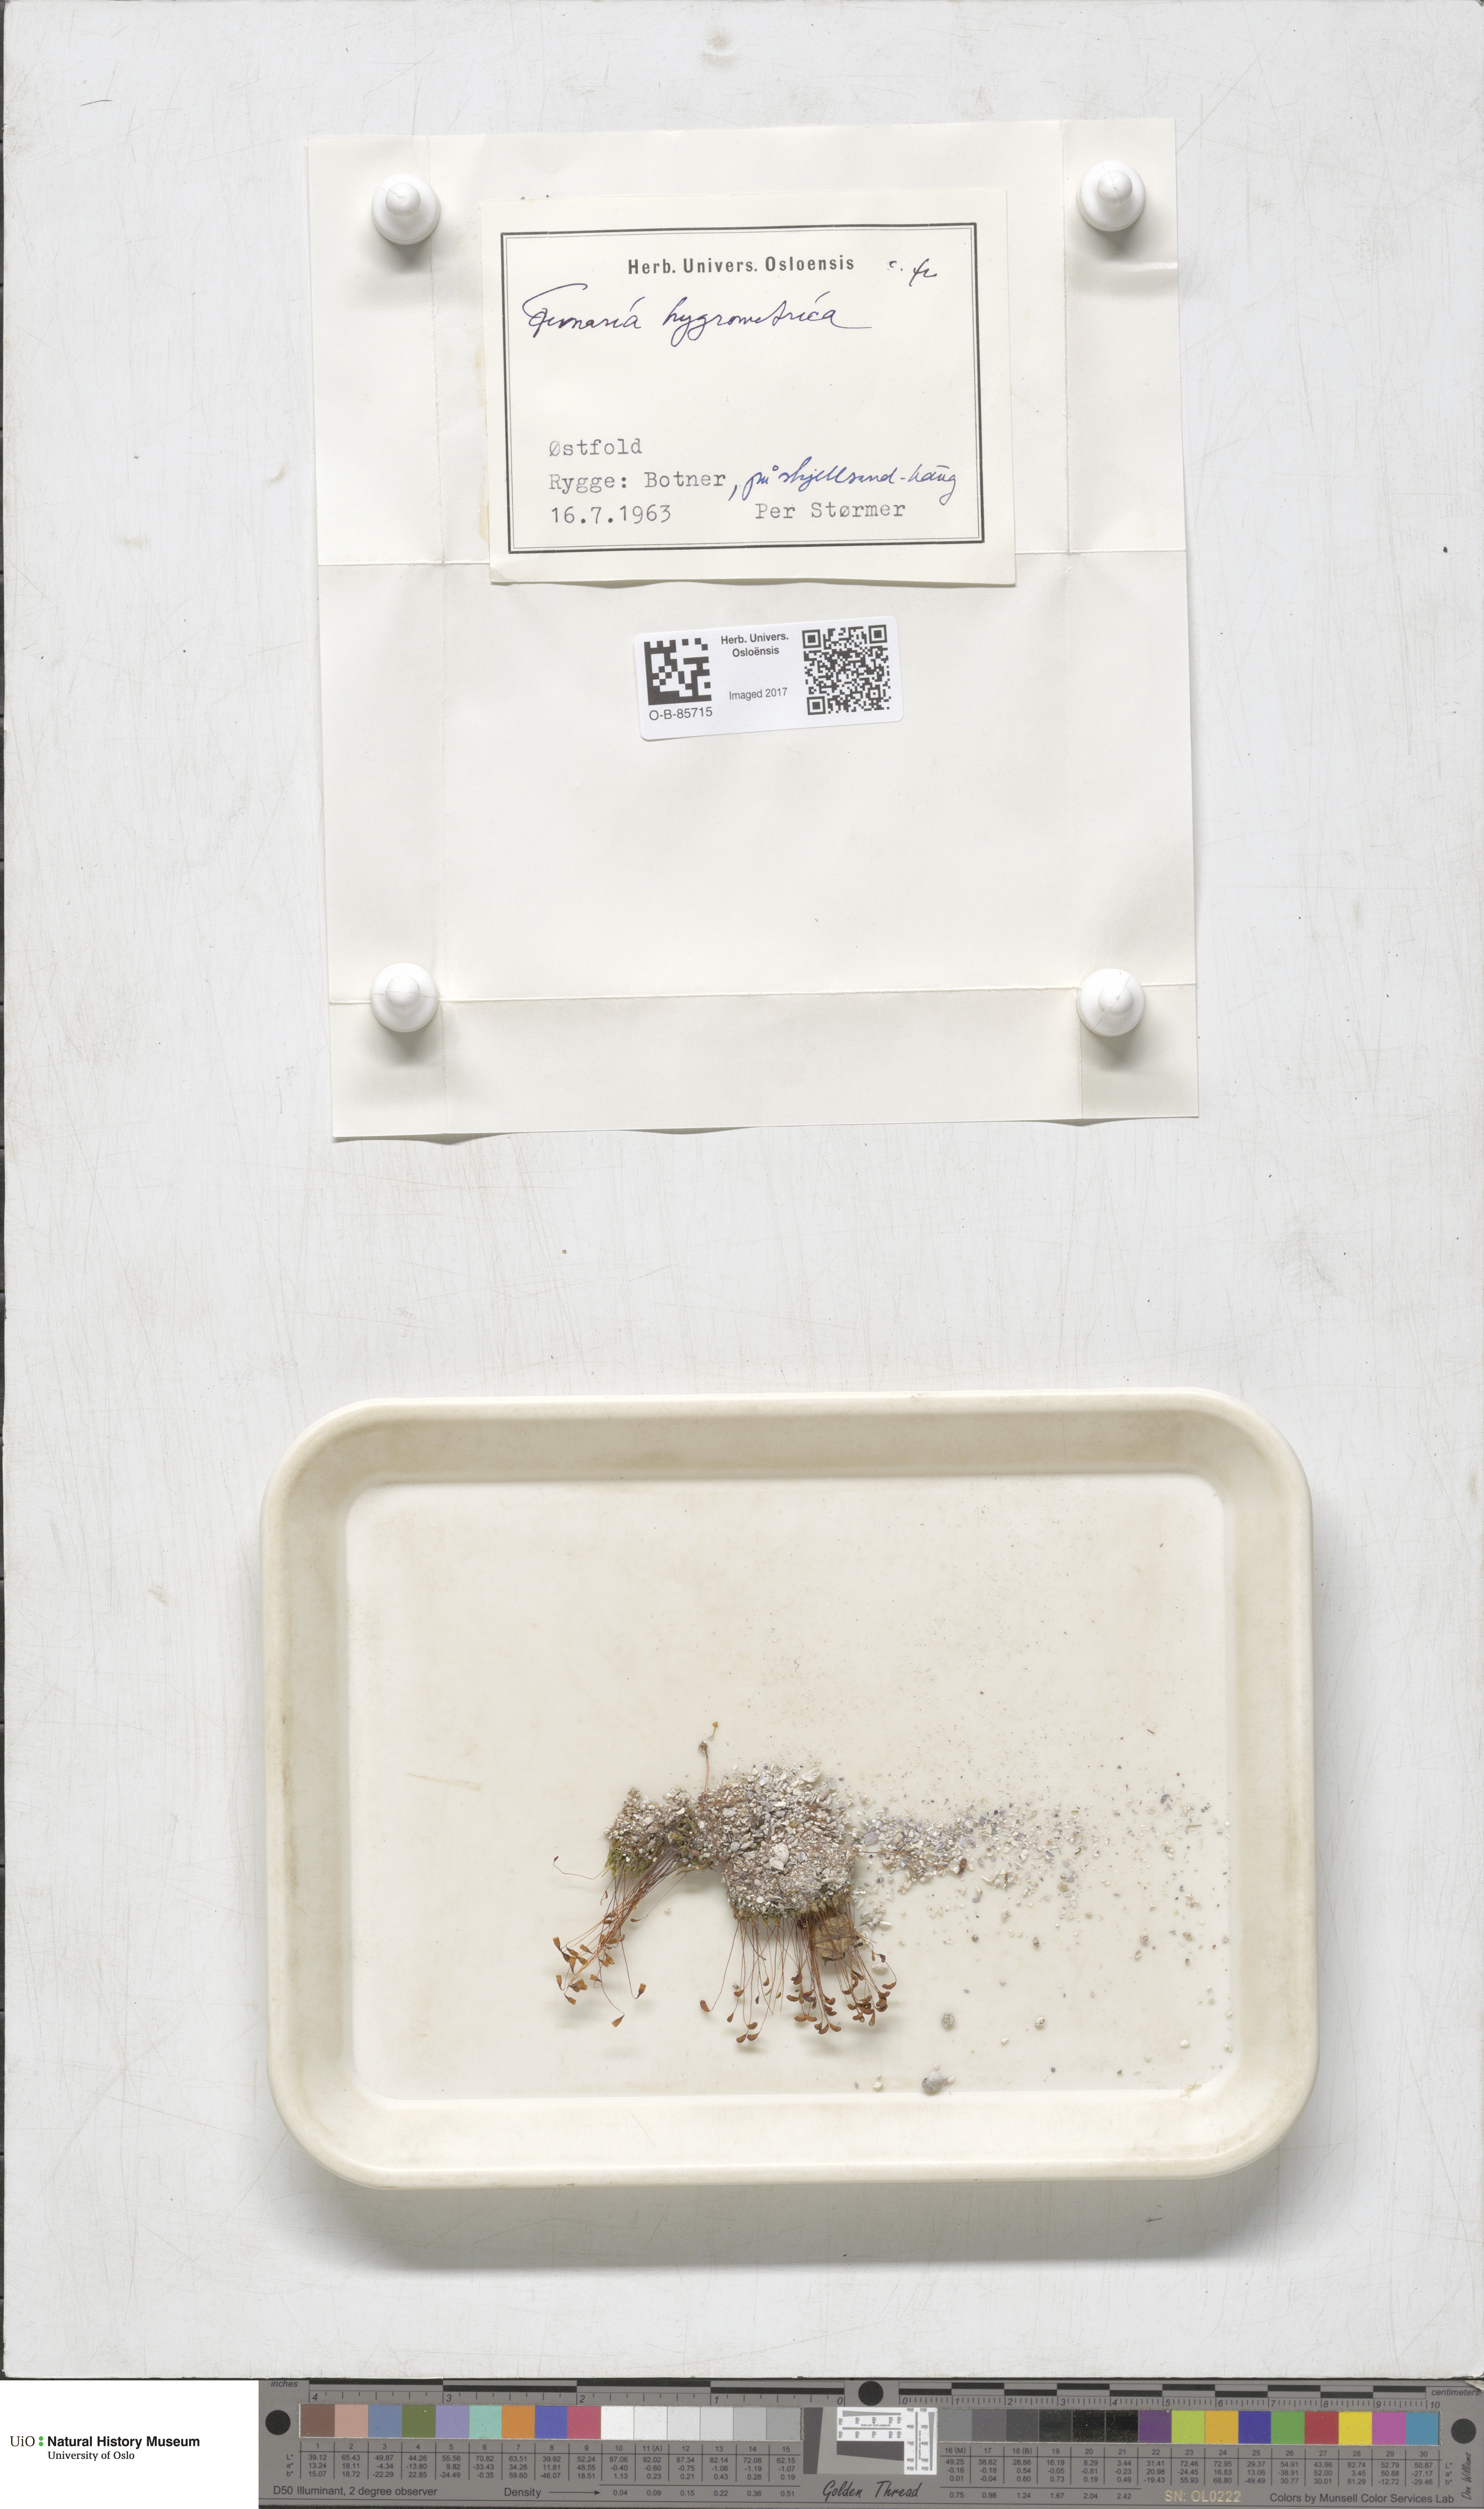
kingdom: Plantae
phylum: Bryophyta
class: Bryopsida
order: Funariales
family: Funariaceae
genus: Funaria
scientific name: Funaria hygrometrica
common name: Common cord moss
